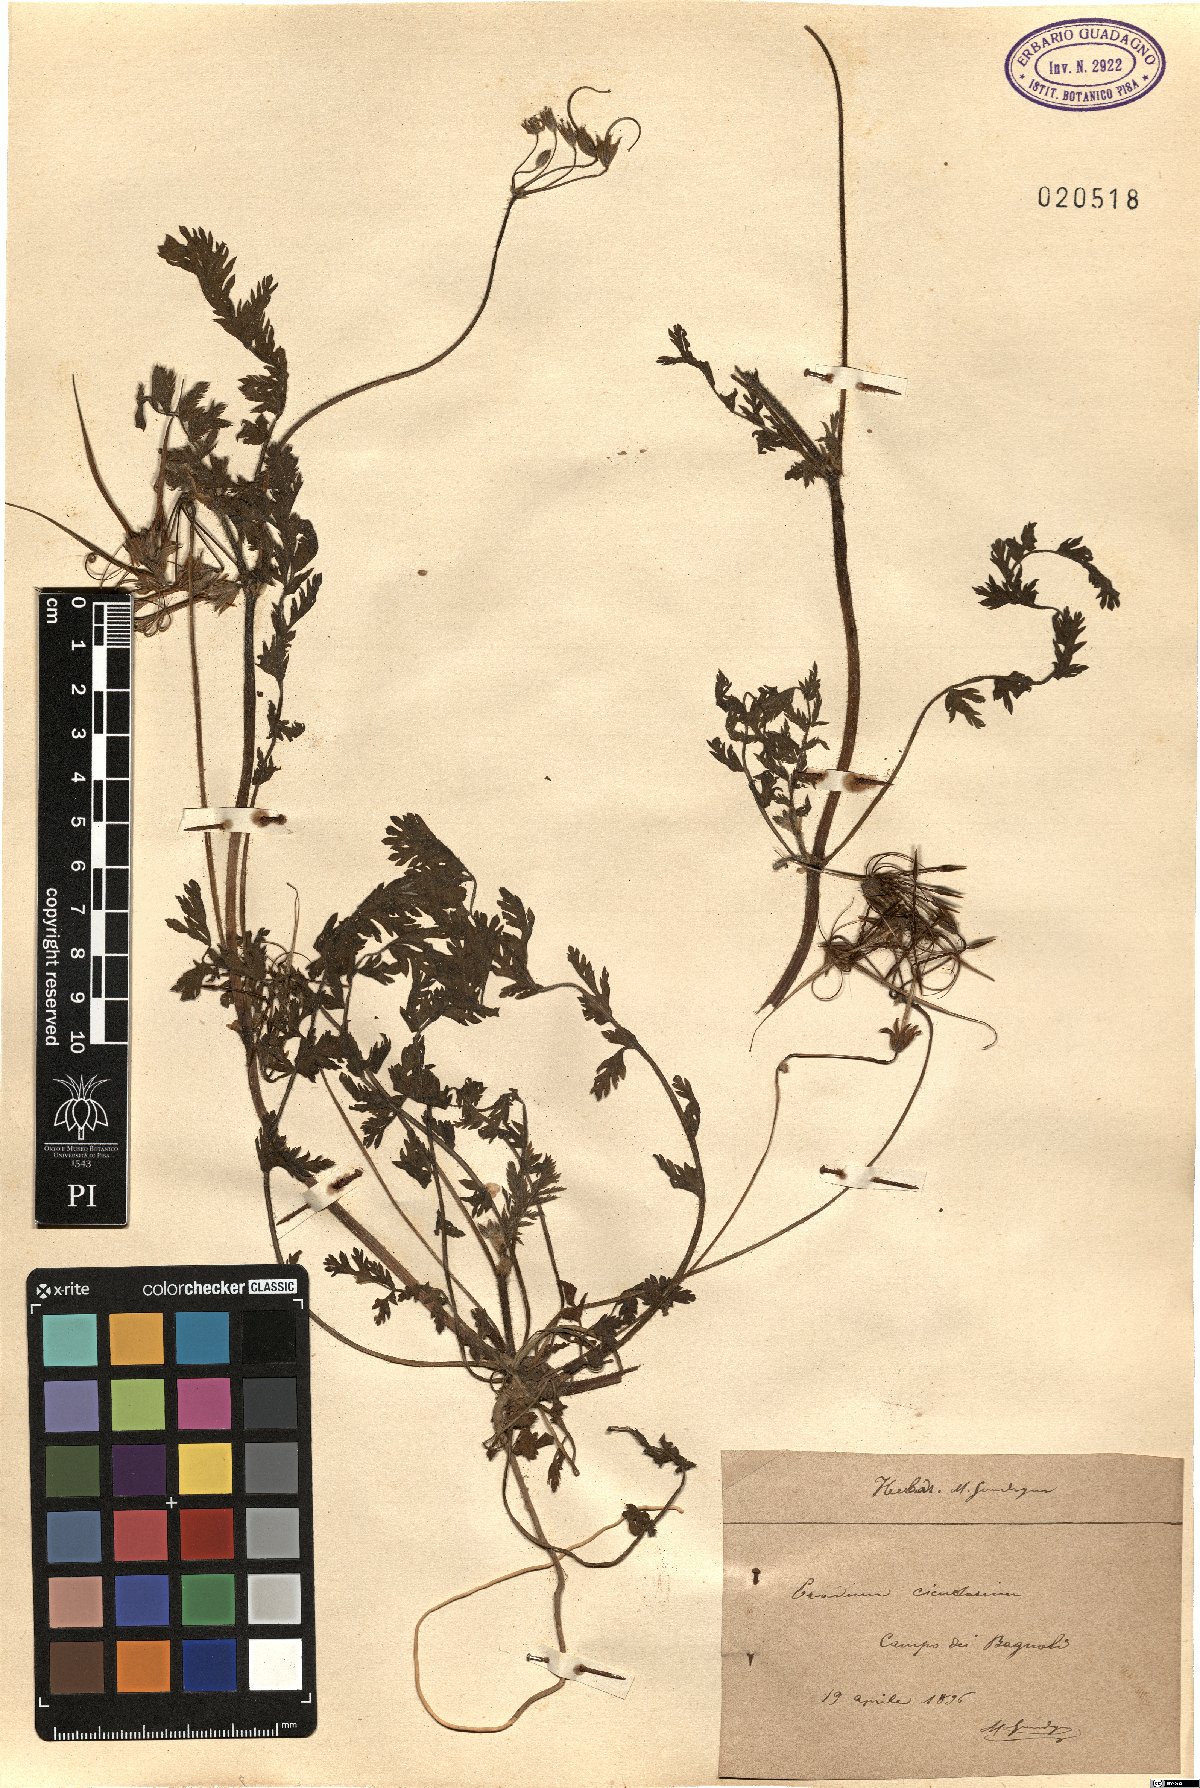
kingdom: Plantae
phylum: Tracheophyta
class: Magnoliopsida
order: Geraniales
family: Geraniaceae
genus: Erodium
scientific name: Erodium cicutarium
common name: Common stork's-bill
